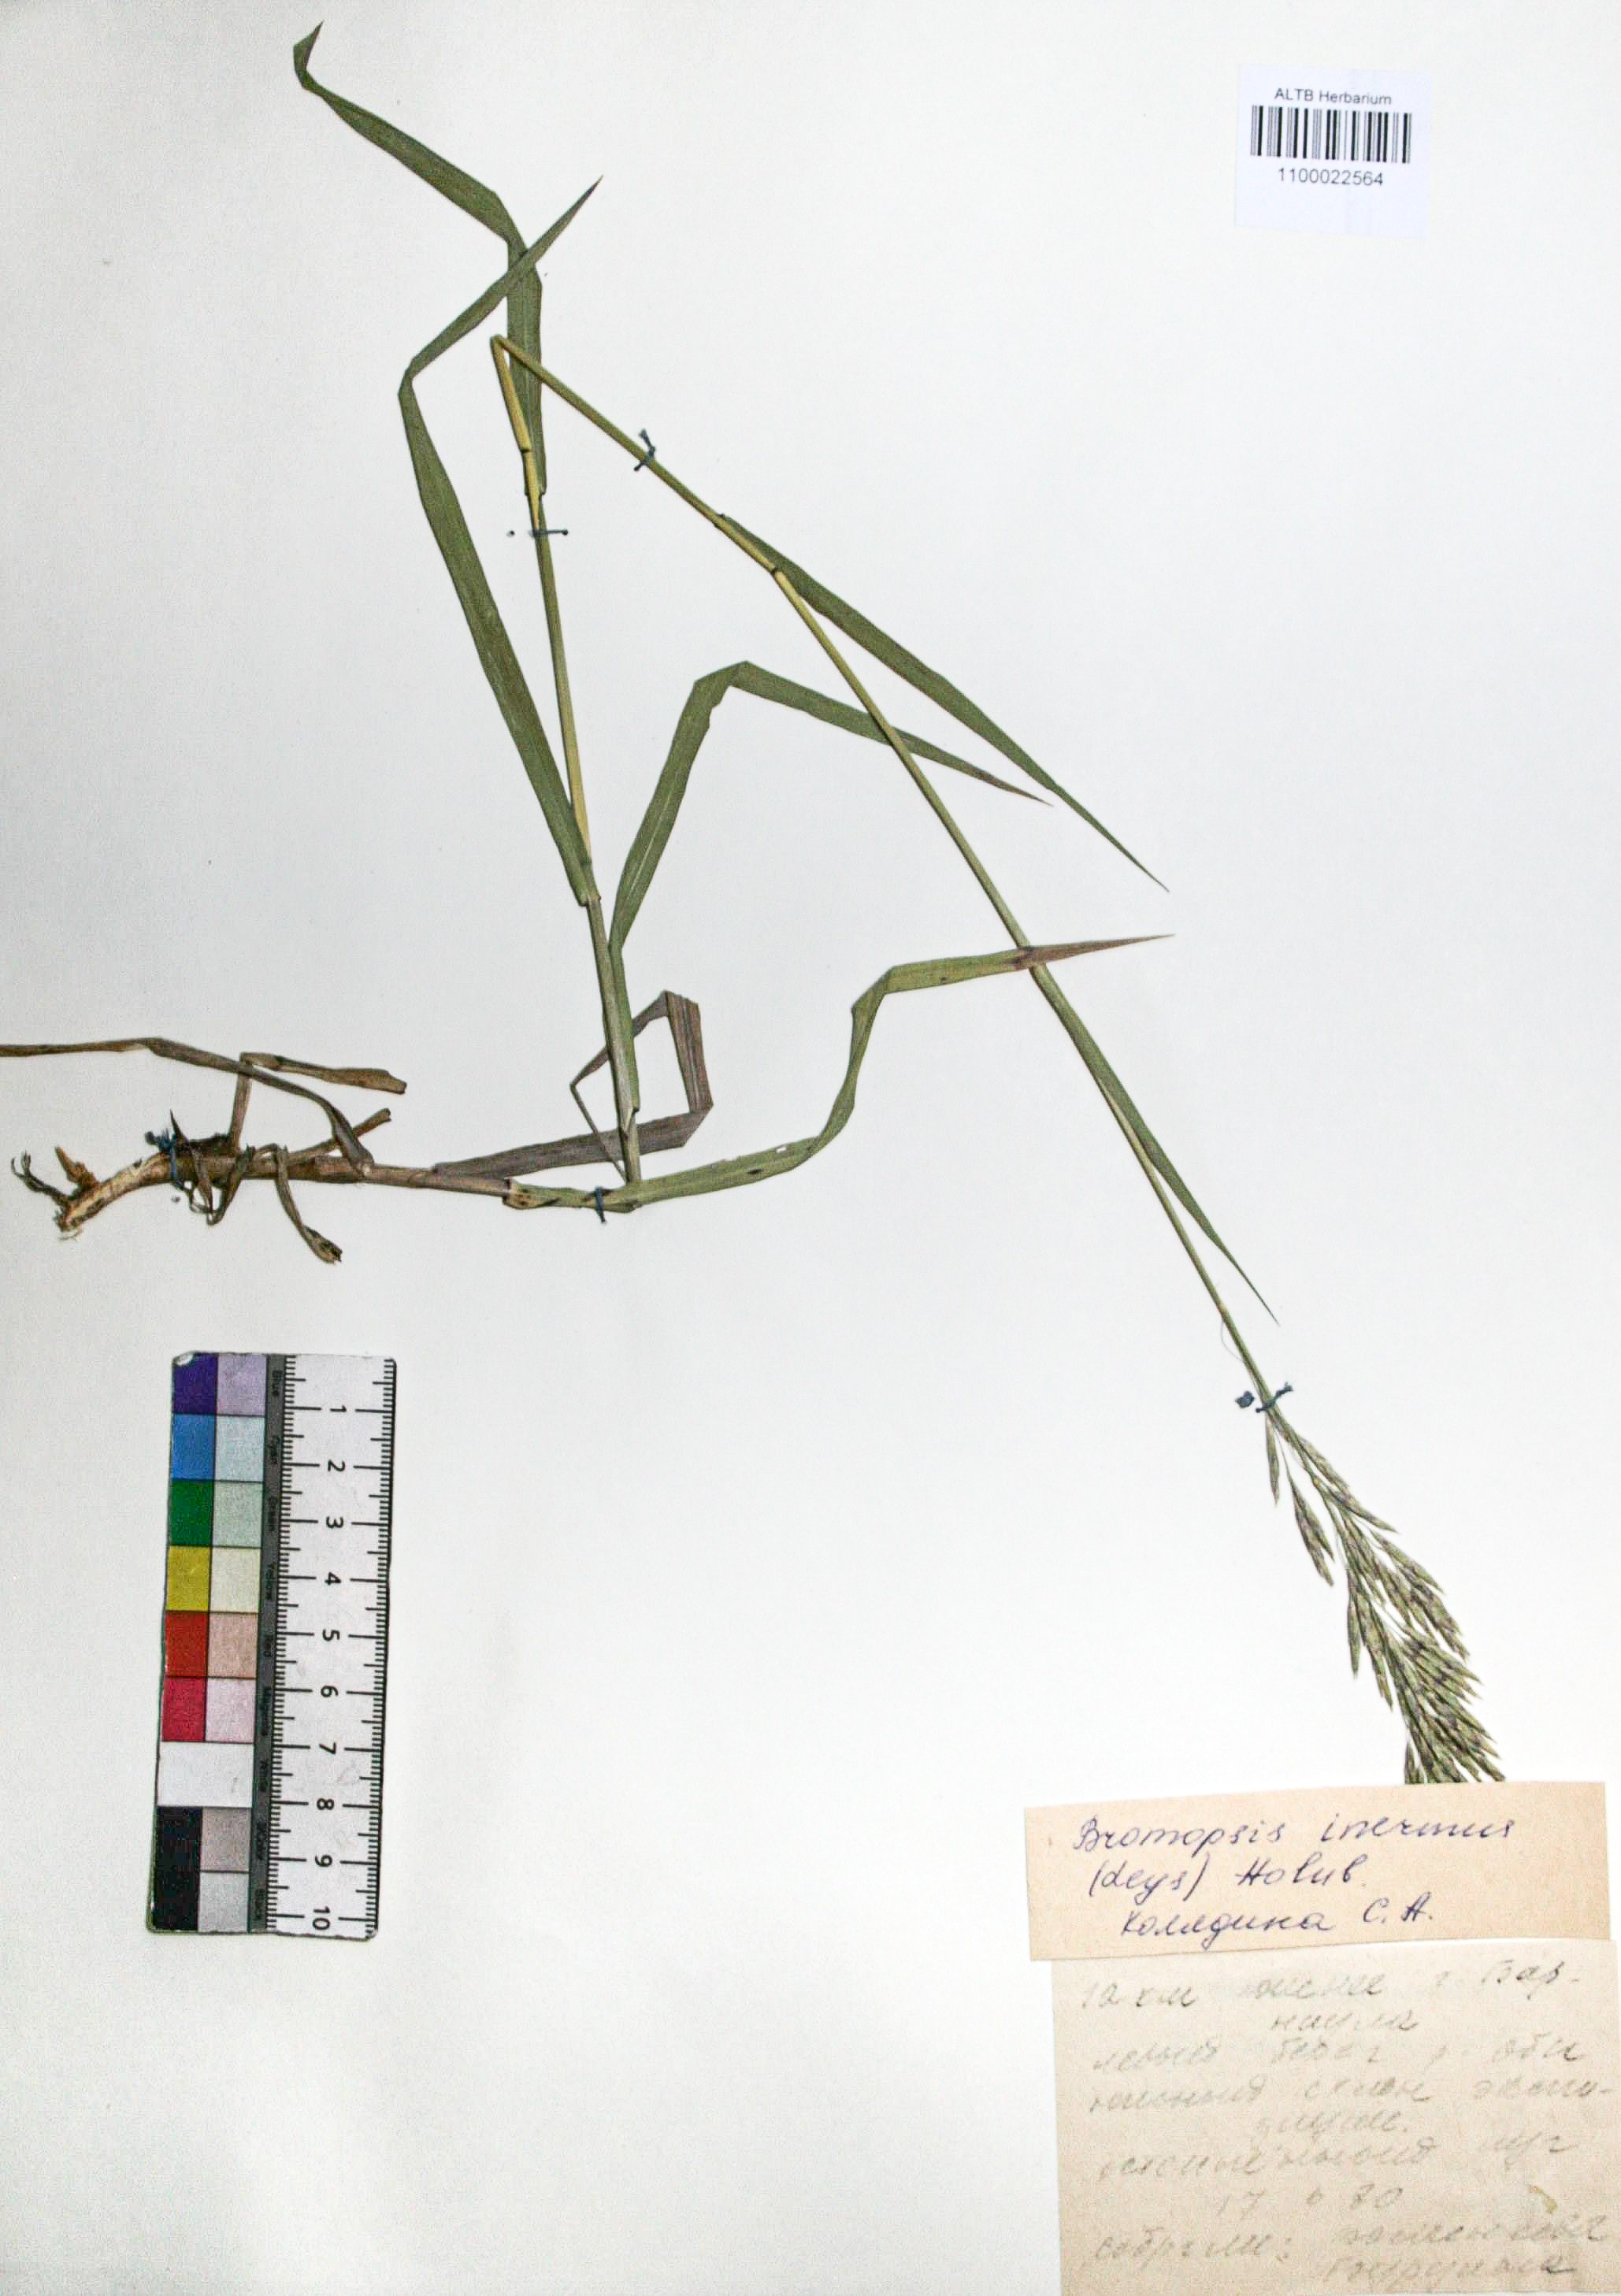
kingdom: Plantae
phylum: Tracheophyta
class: Liliopsida
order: Poales
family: Poaceae
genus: Bromus
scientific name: Bromus inermis
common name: Smooth brome
